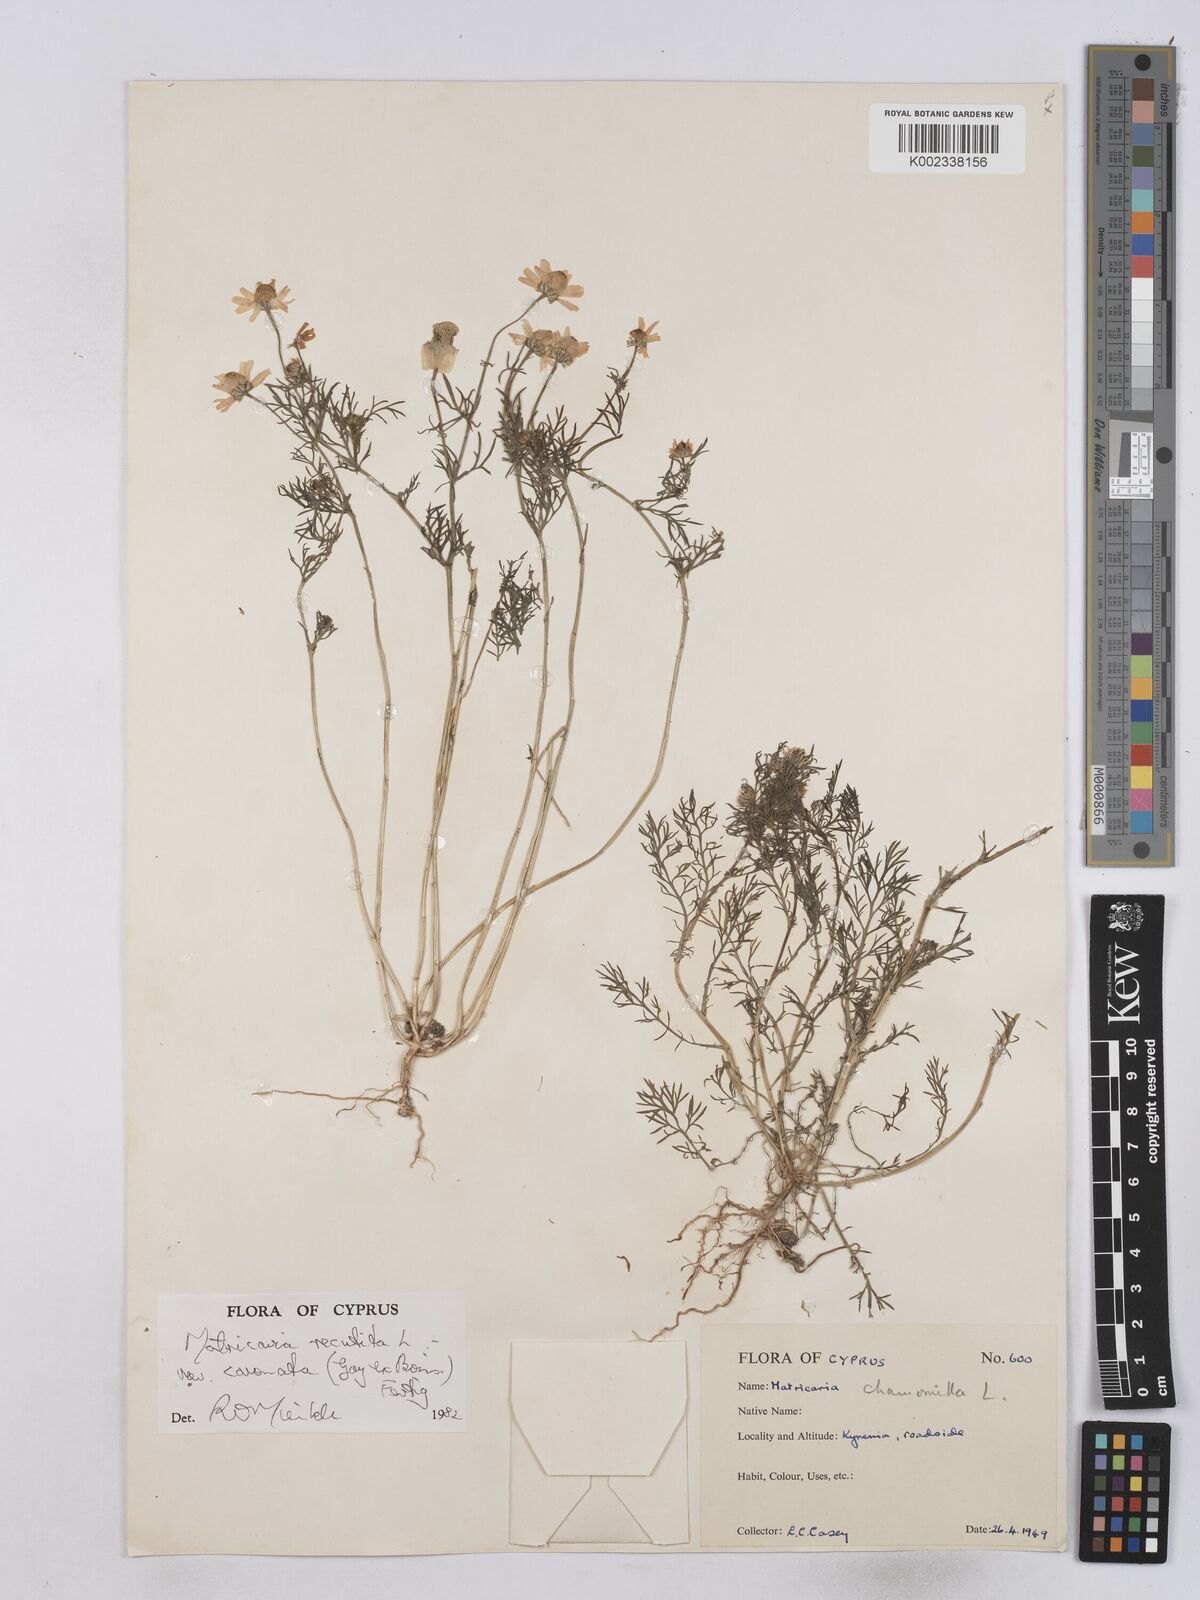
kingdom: Plantae
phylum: Tracheophyta
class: Magnoliopsida
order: Asterales
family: Asteraceae
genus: Matricaria
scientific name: Matricaria chamomilla
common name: Scented mayweed
